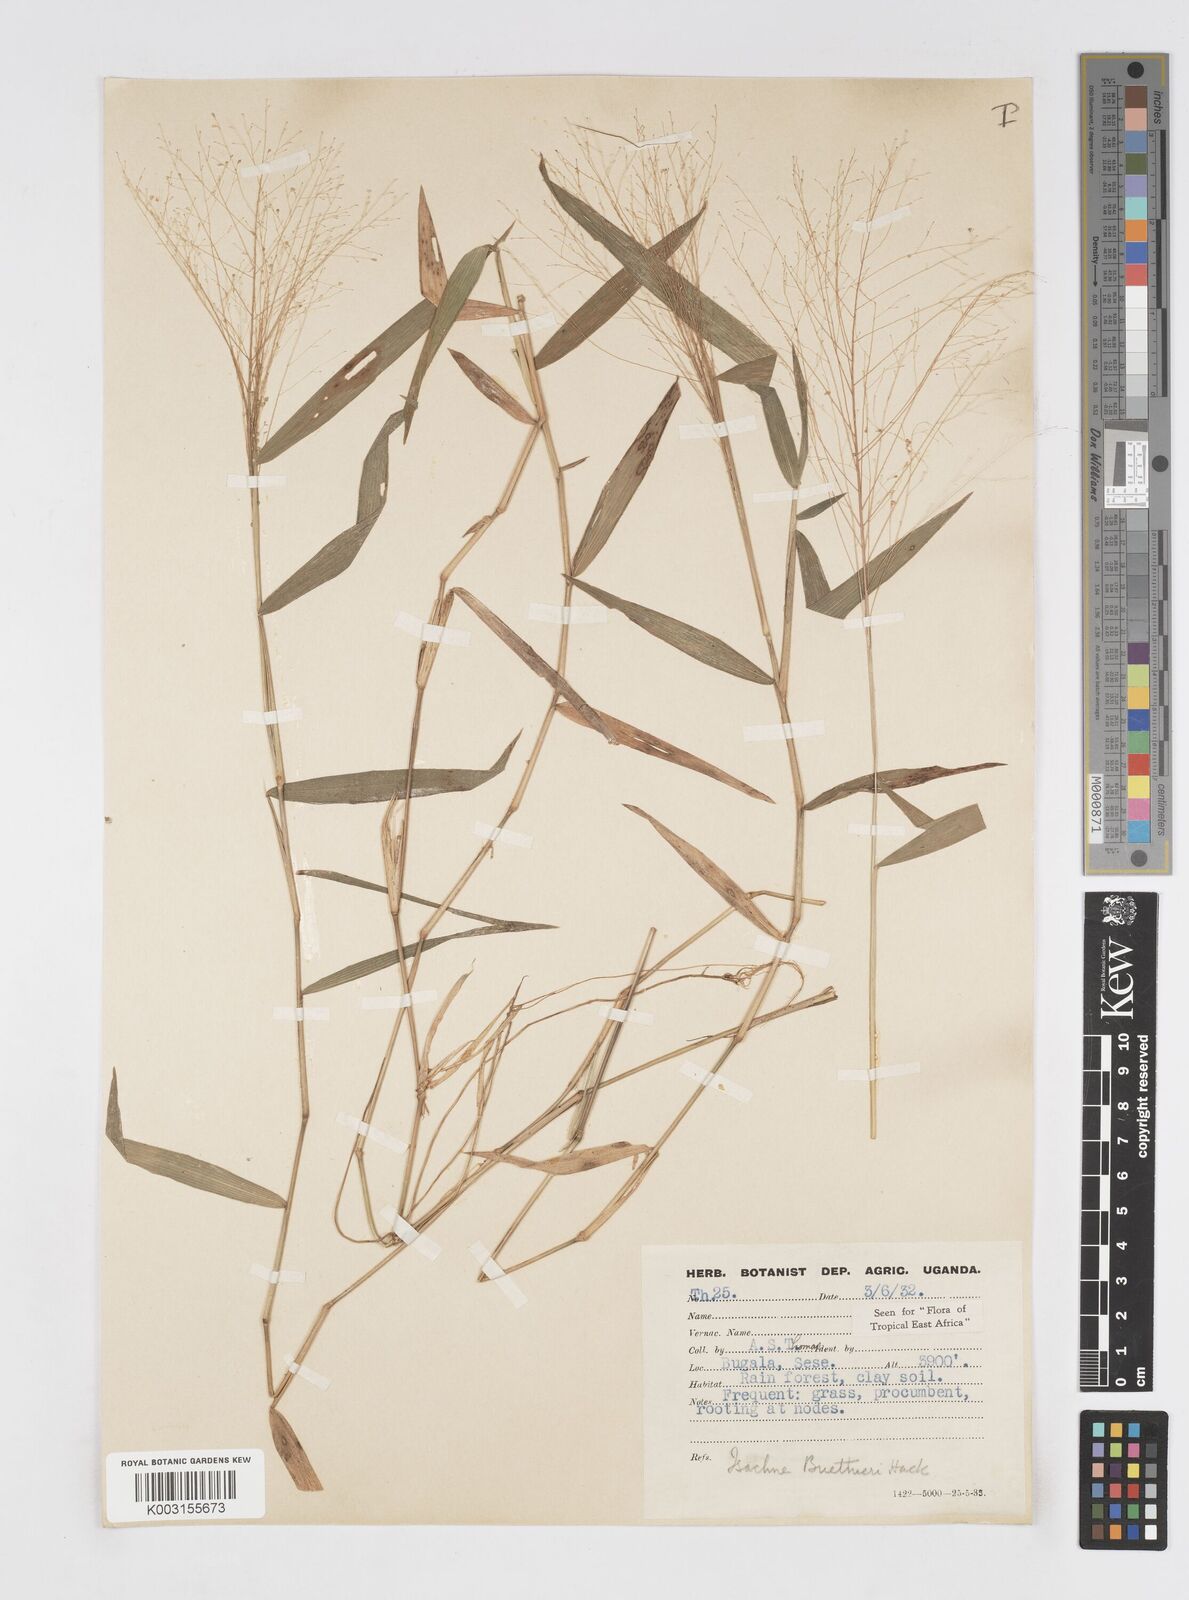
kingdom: Plantae
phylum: Tracheophyta
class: Liliopsida
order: Poales
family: Poaceae
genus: Isachne
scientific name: Isachne albens
